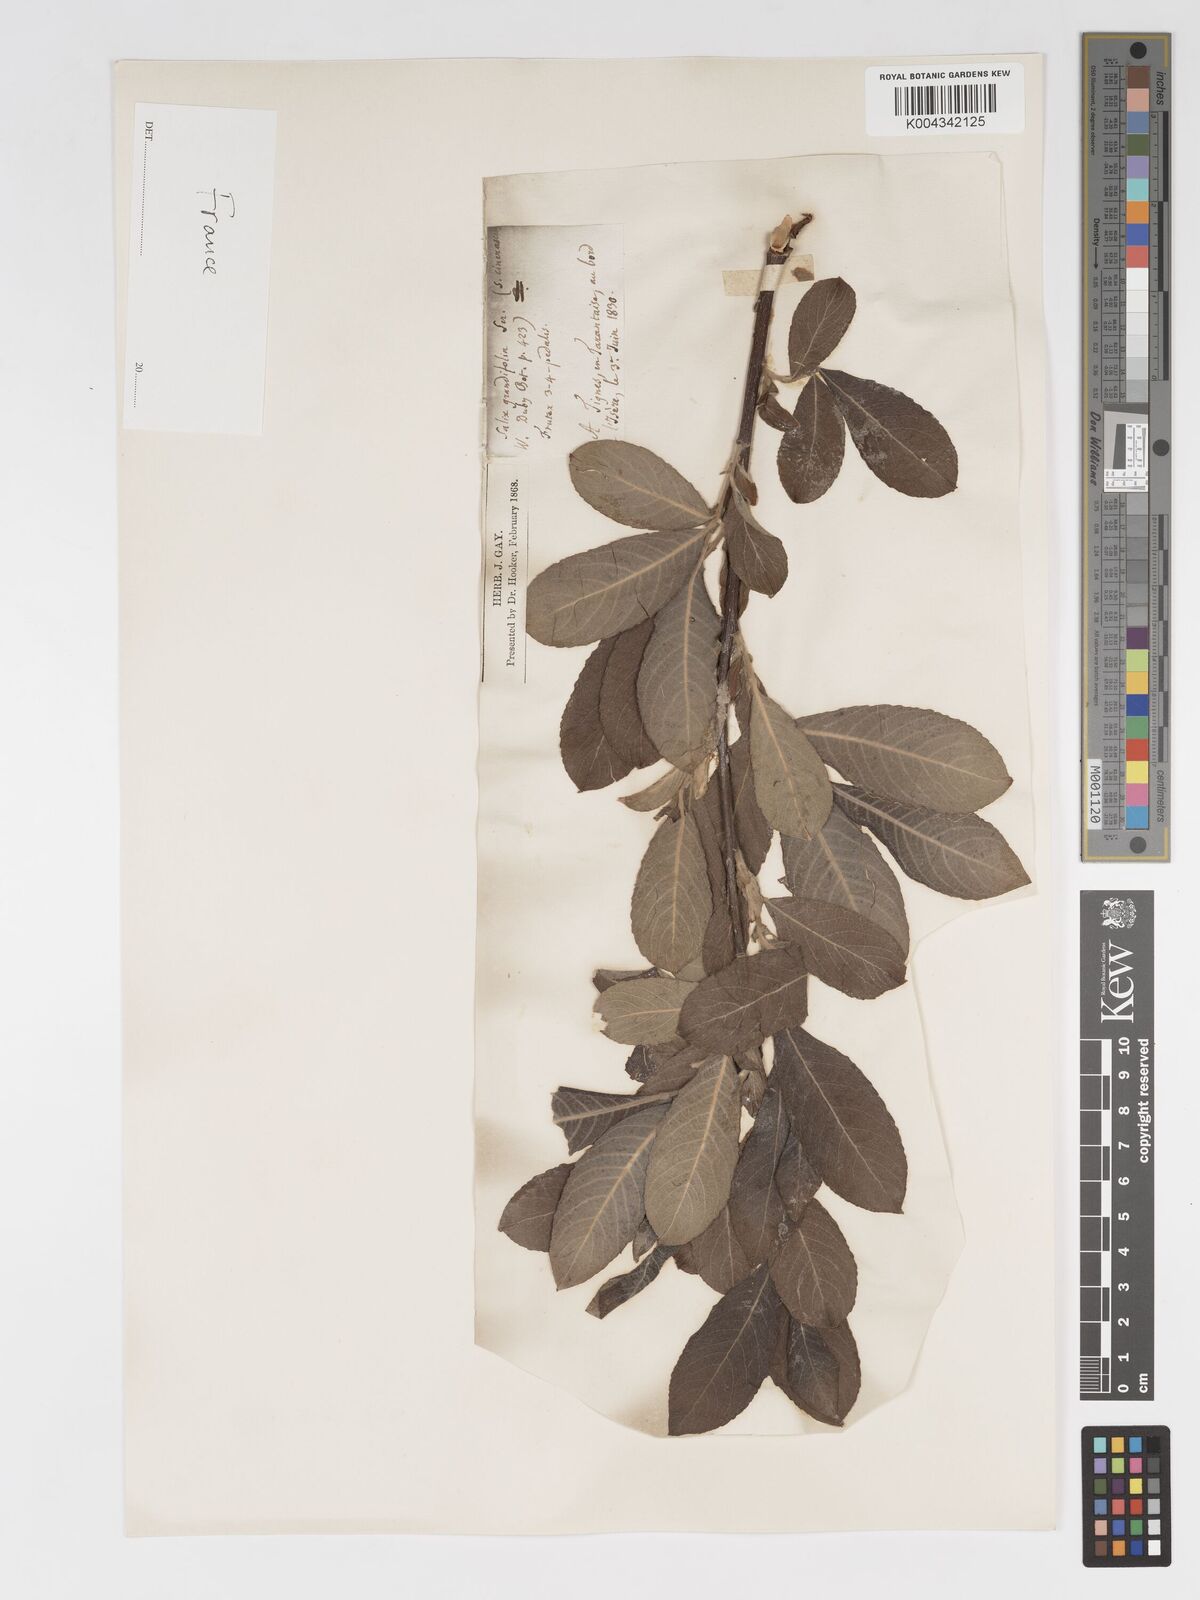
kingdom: Plantae
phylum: Tracheophyta
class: Magnoliopsida
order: Malpighiales
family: Salicaceae
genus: Salix
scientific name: Salix laggeri
